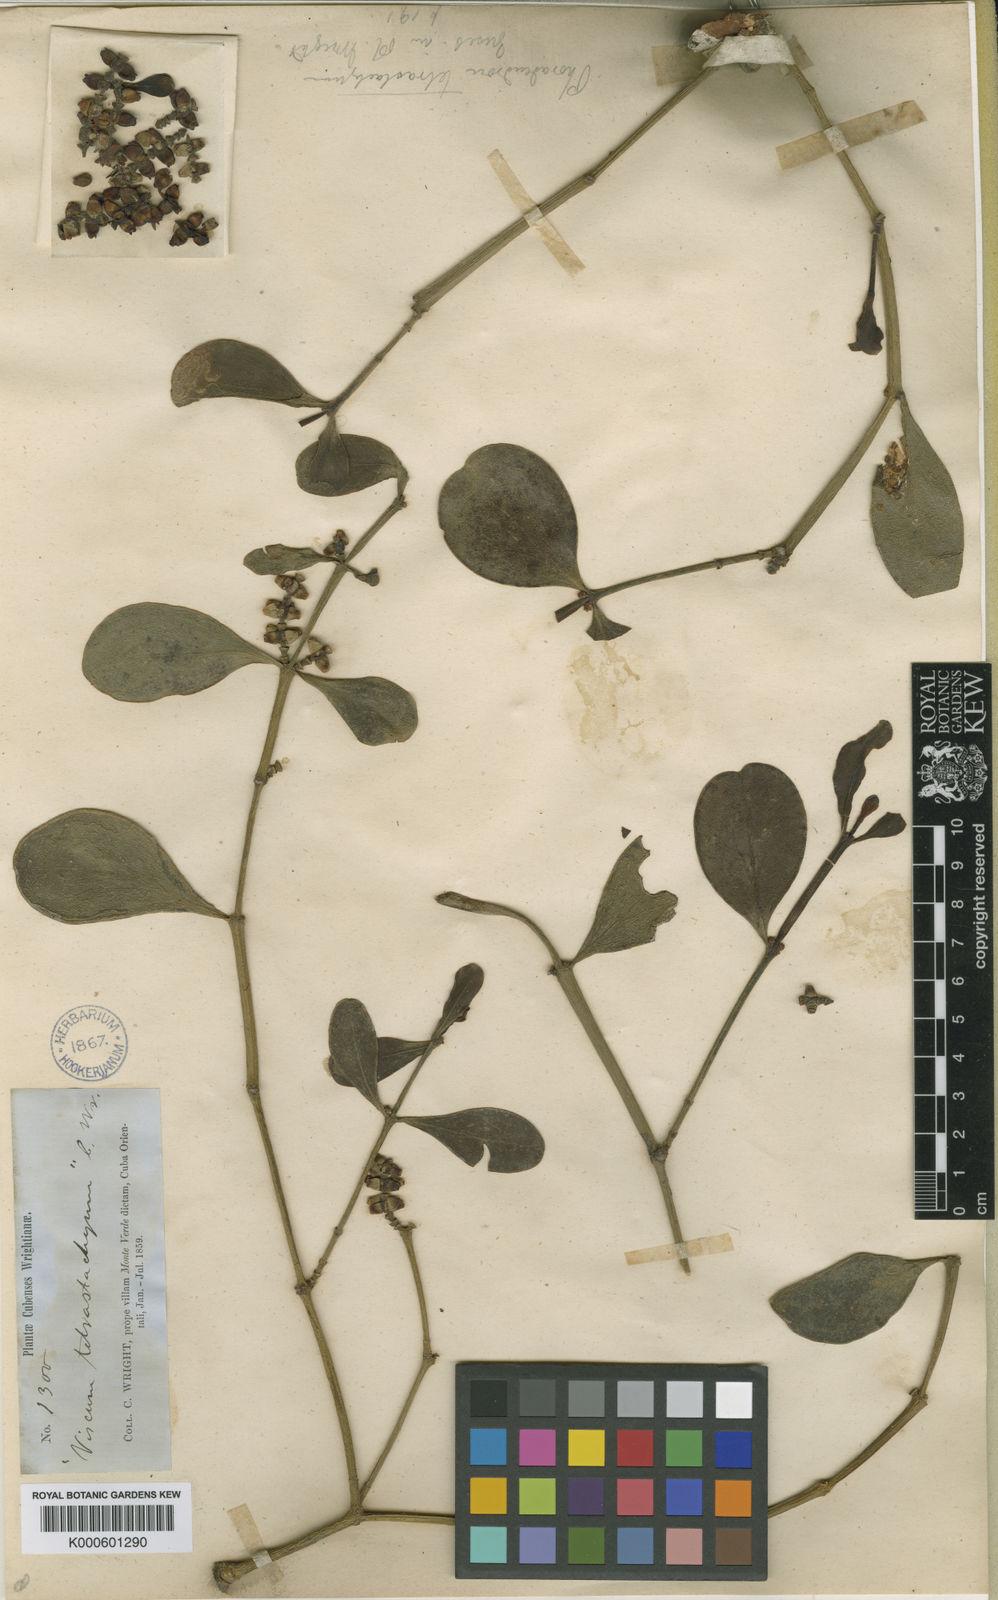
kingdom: Plantae
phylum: Tracheophyta
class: Magnoliopsida
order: Santalales
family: Viscaceae
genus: Dendrophthora
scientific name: Dendrophthora tetrastachya
